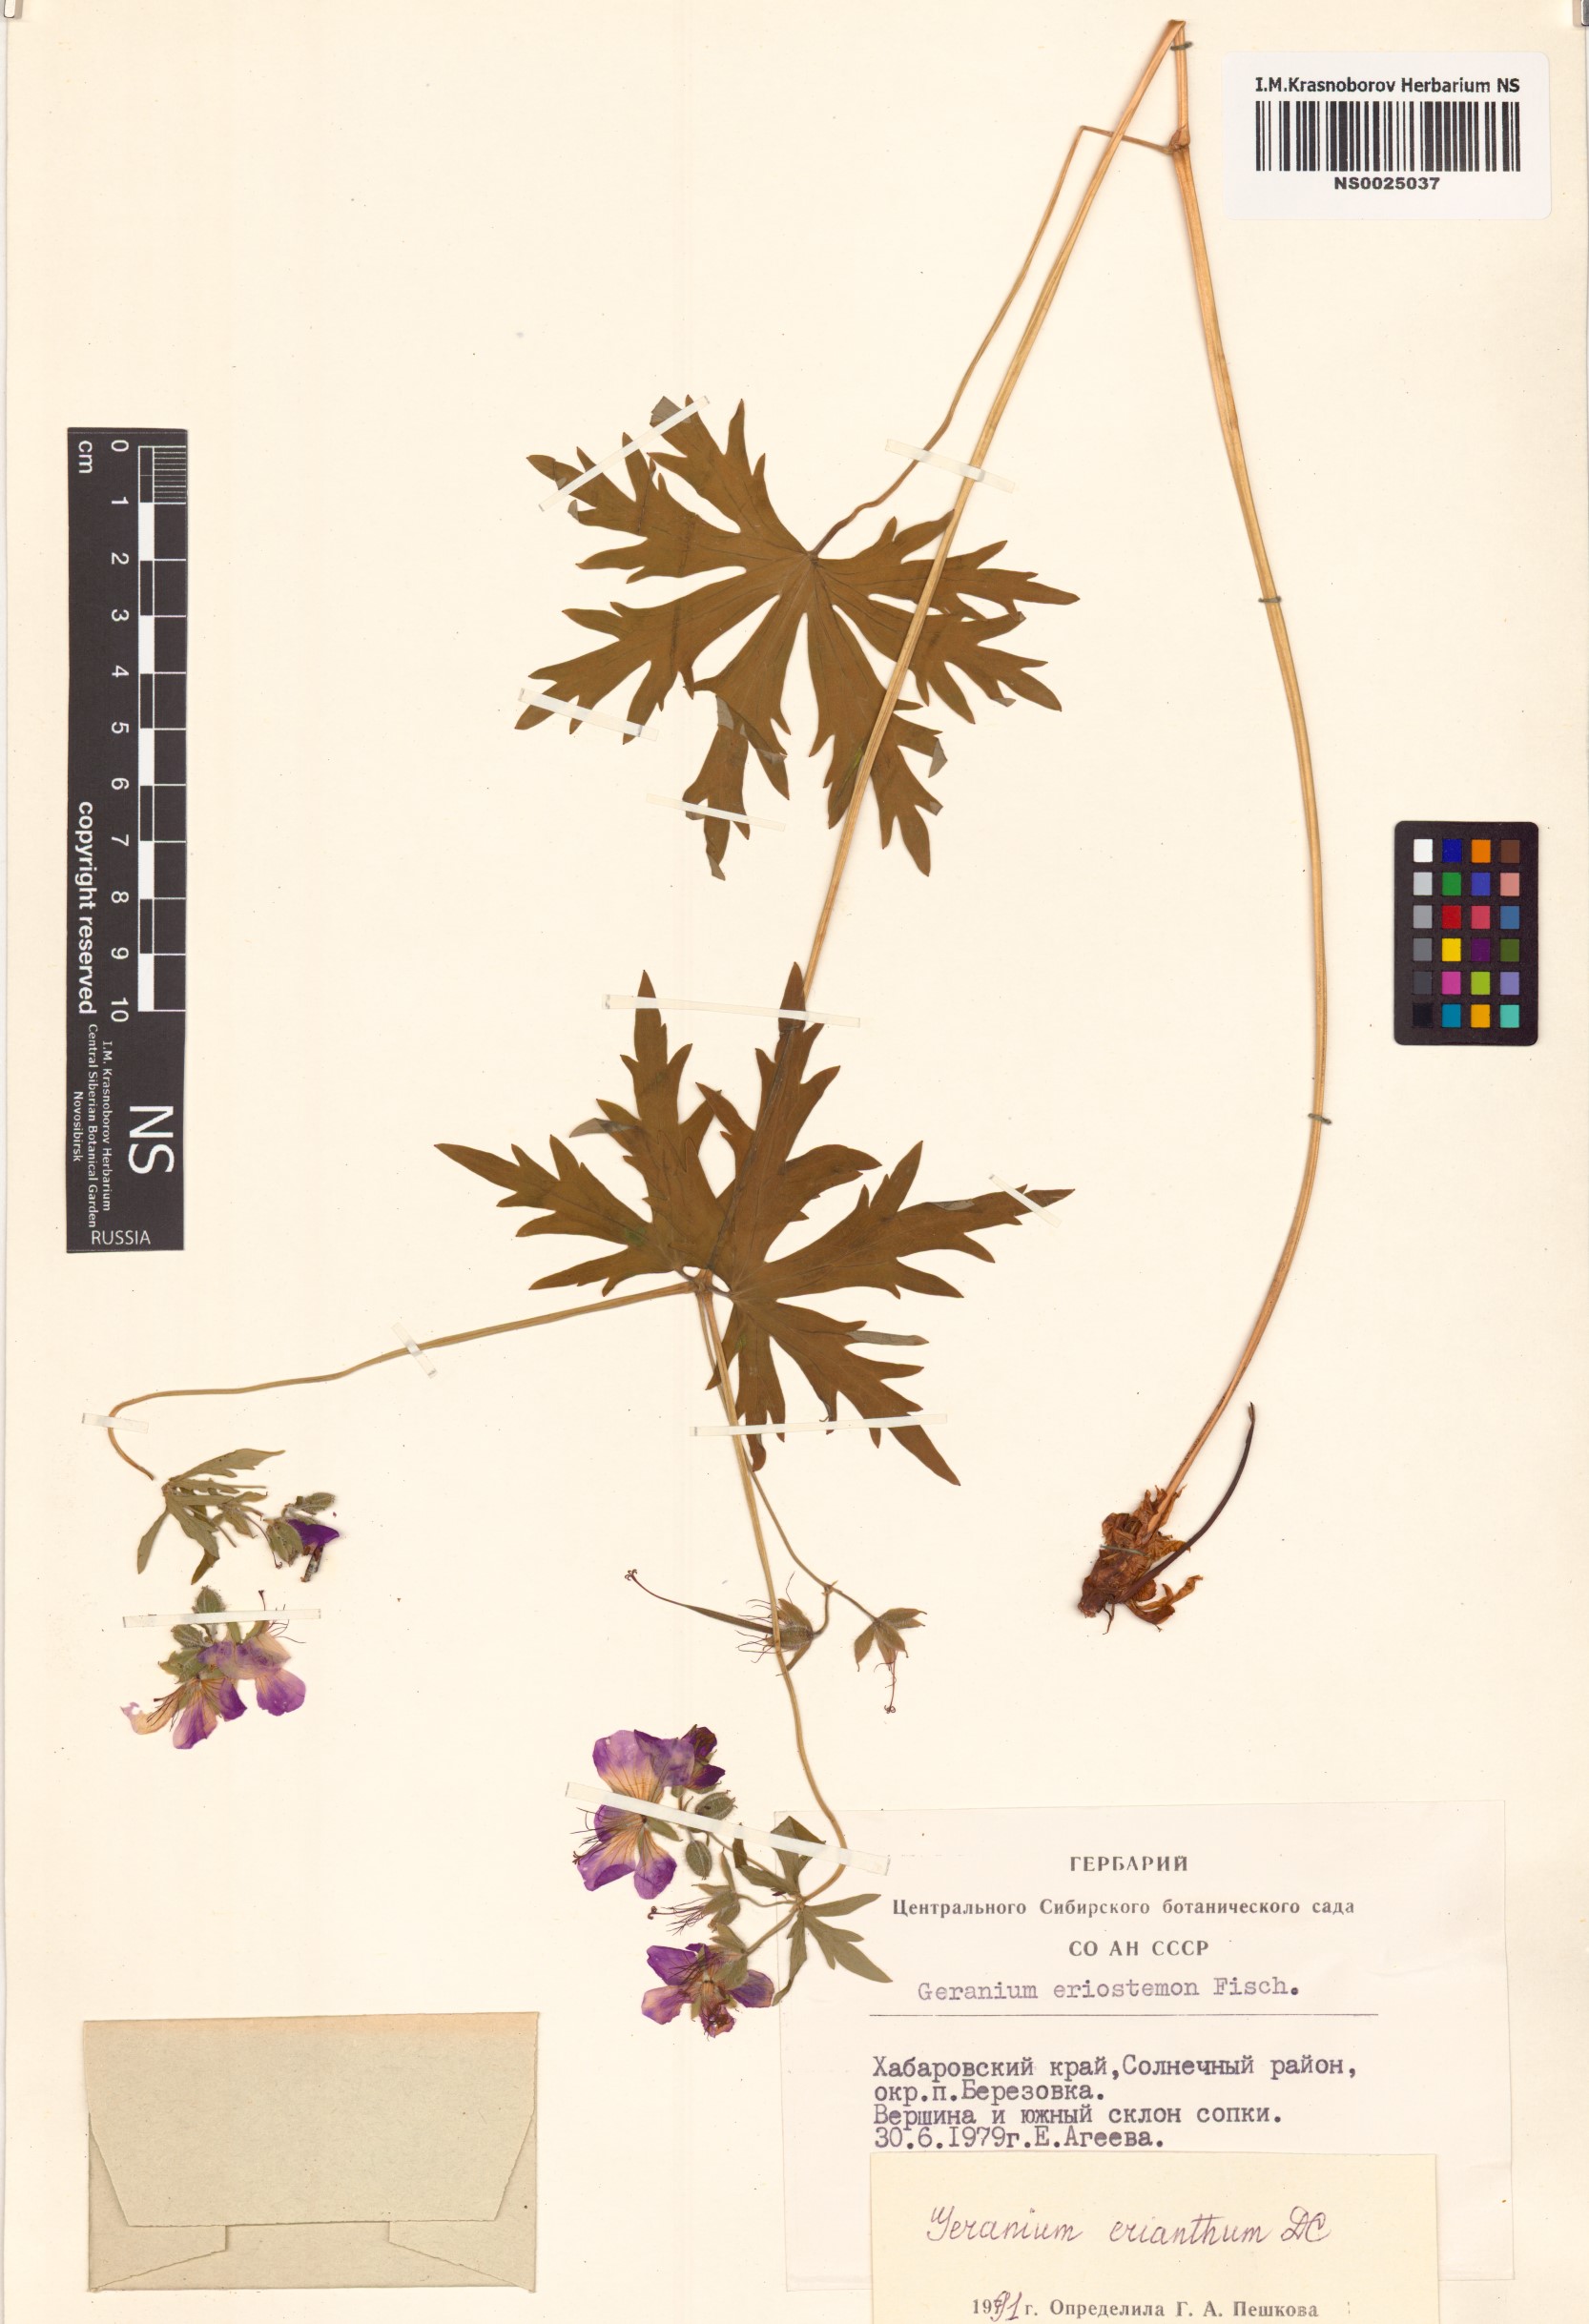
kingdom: Plantae
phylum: Tracheophyta
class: Magnoliopsida
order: Geraniales
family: Geraniaceae
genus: Geranium
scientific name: Geranium erianthum
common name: Northern crane's-bill
